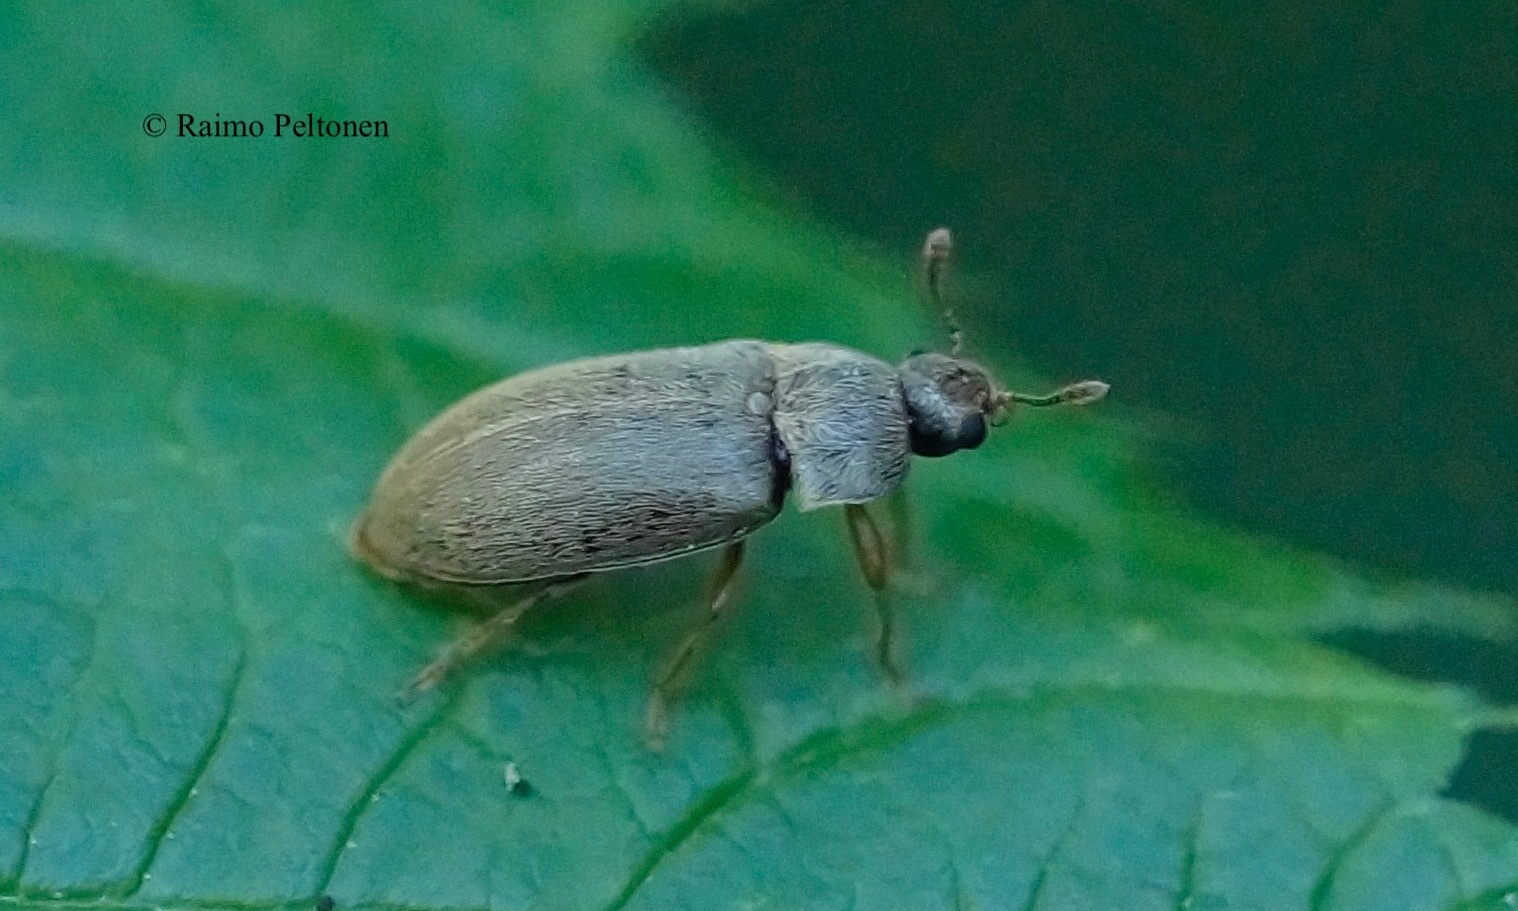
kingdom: Animalia
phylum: Arthropoda
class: Insecta
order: Coleoptera
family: Byturidae
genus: Byturus
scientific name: Byturus tomentosus
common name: Beetle
